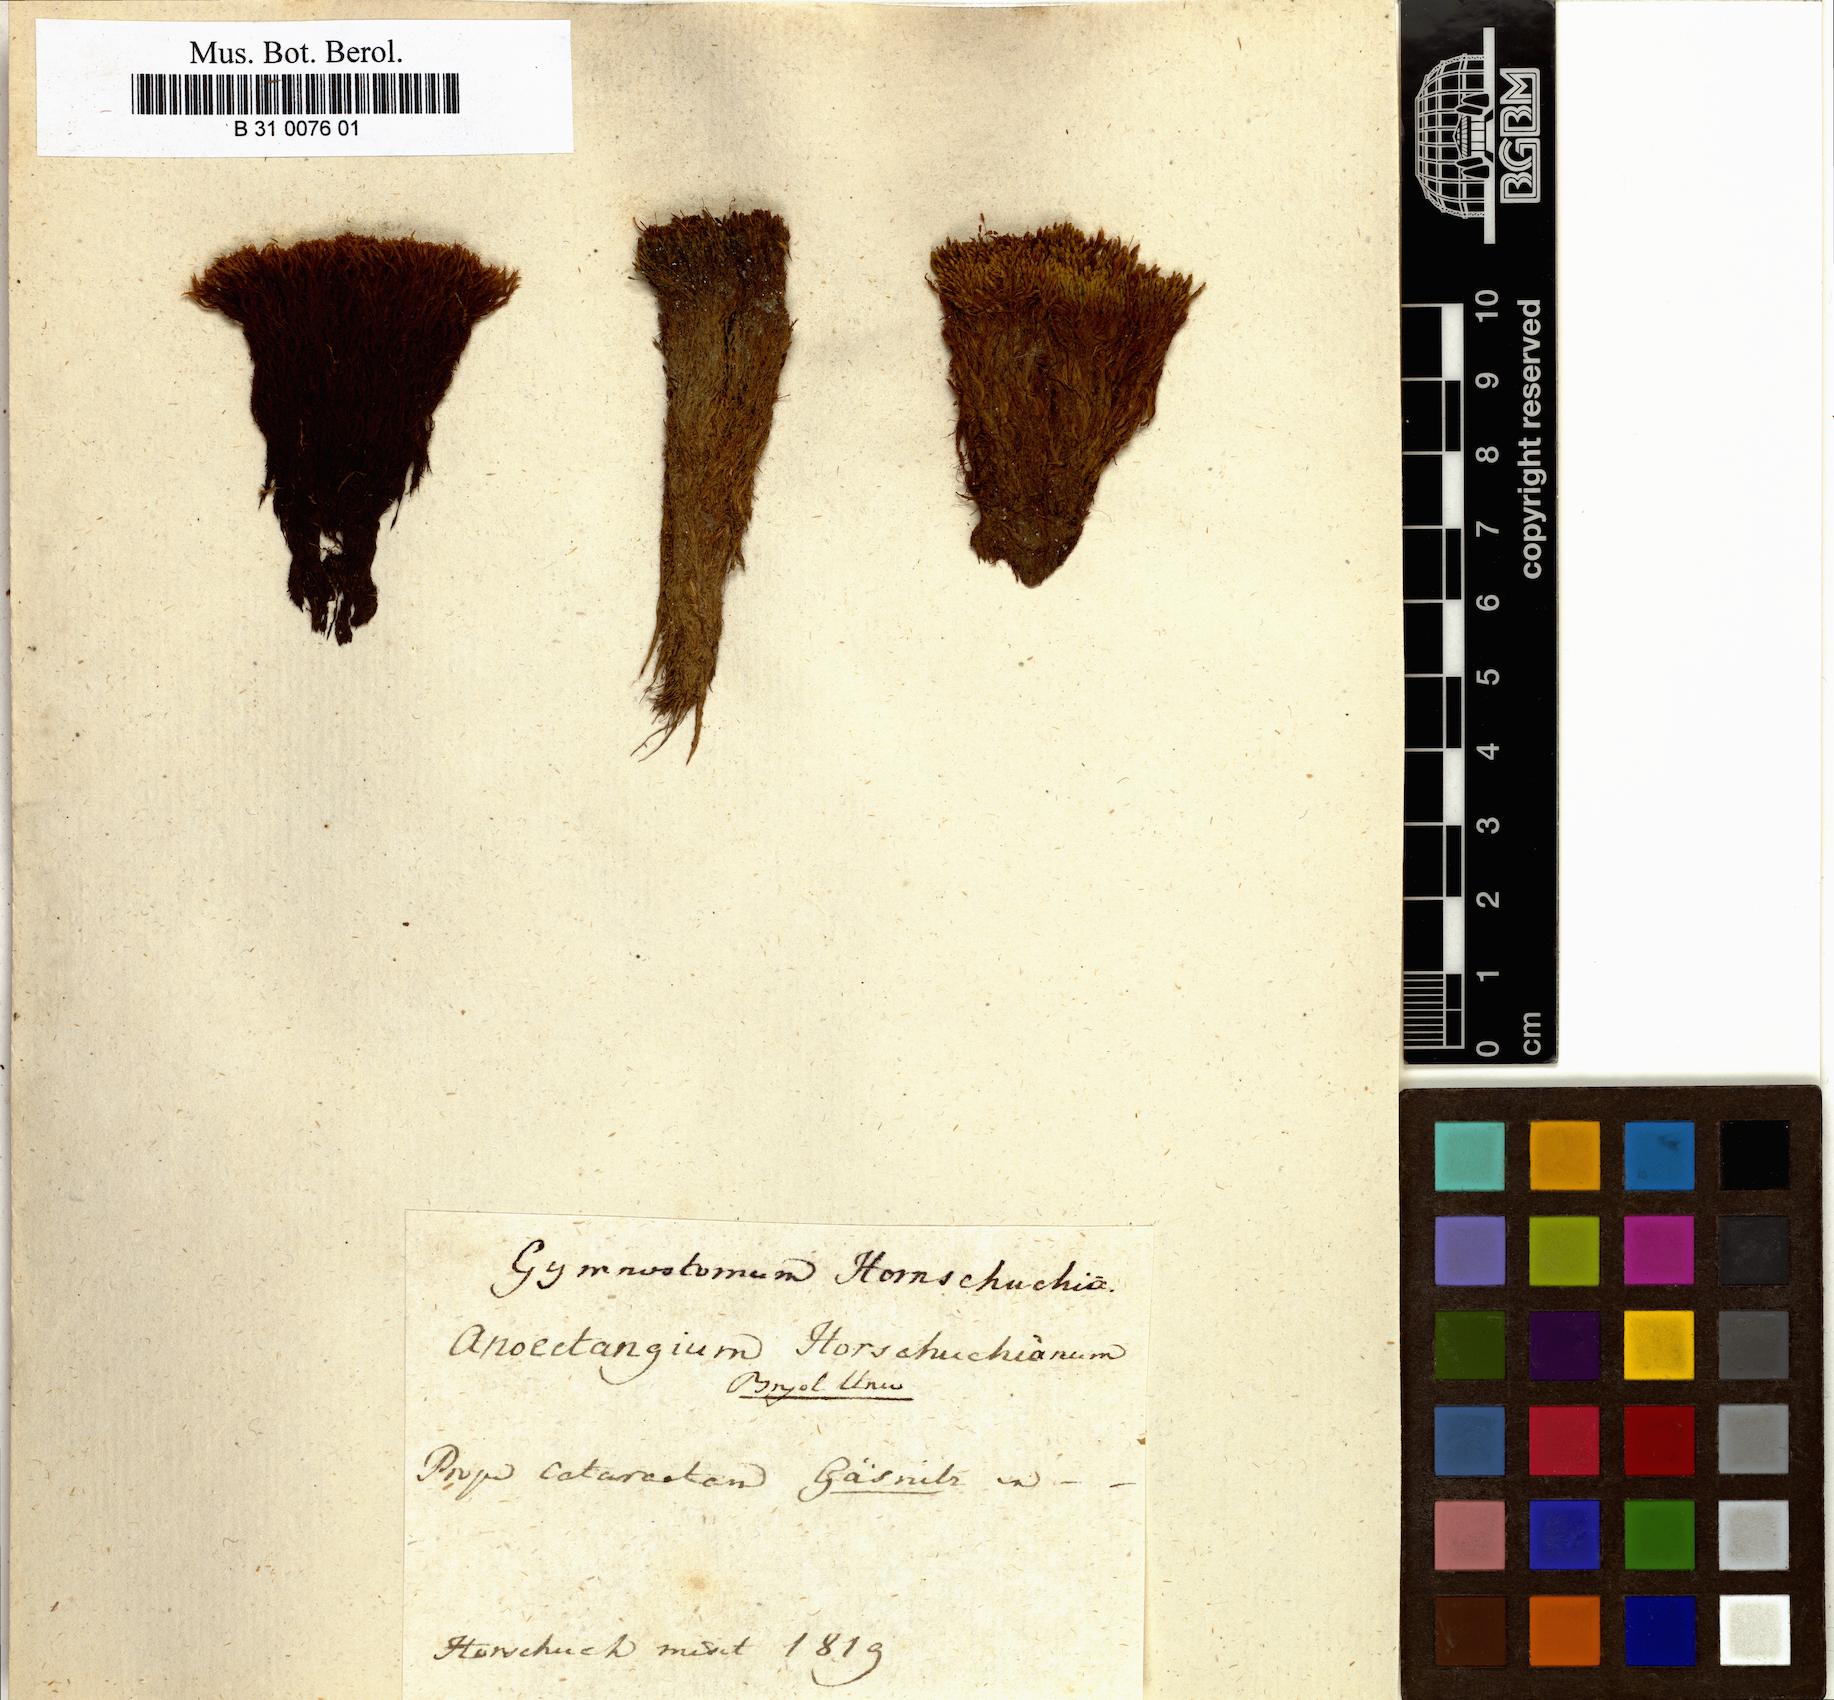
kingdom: Plantae
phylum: Bryophyta
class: Bryopsida
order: Pottiales
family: Pottiaceae
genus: Molendoa
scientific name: Molendoa hornschuchiana
